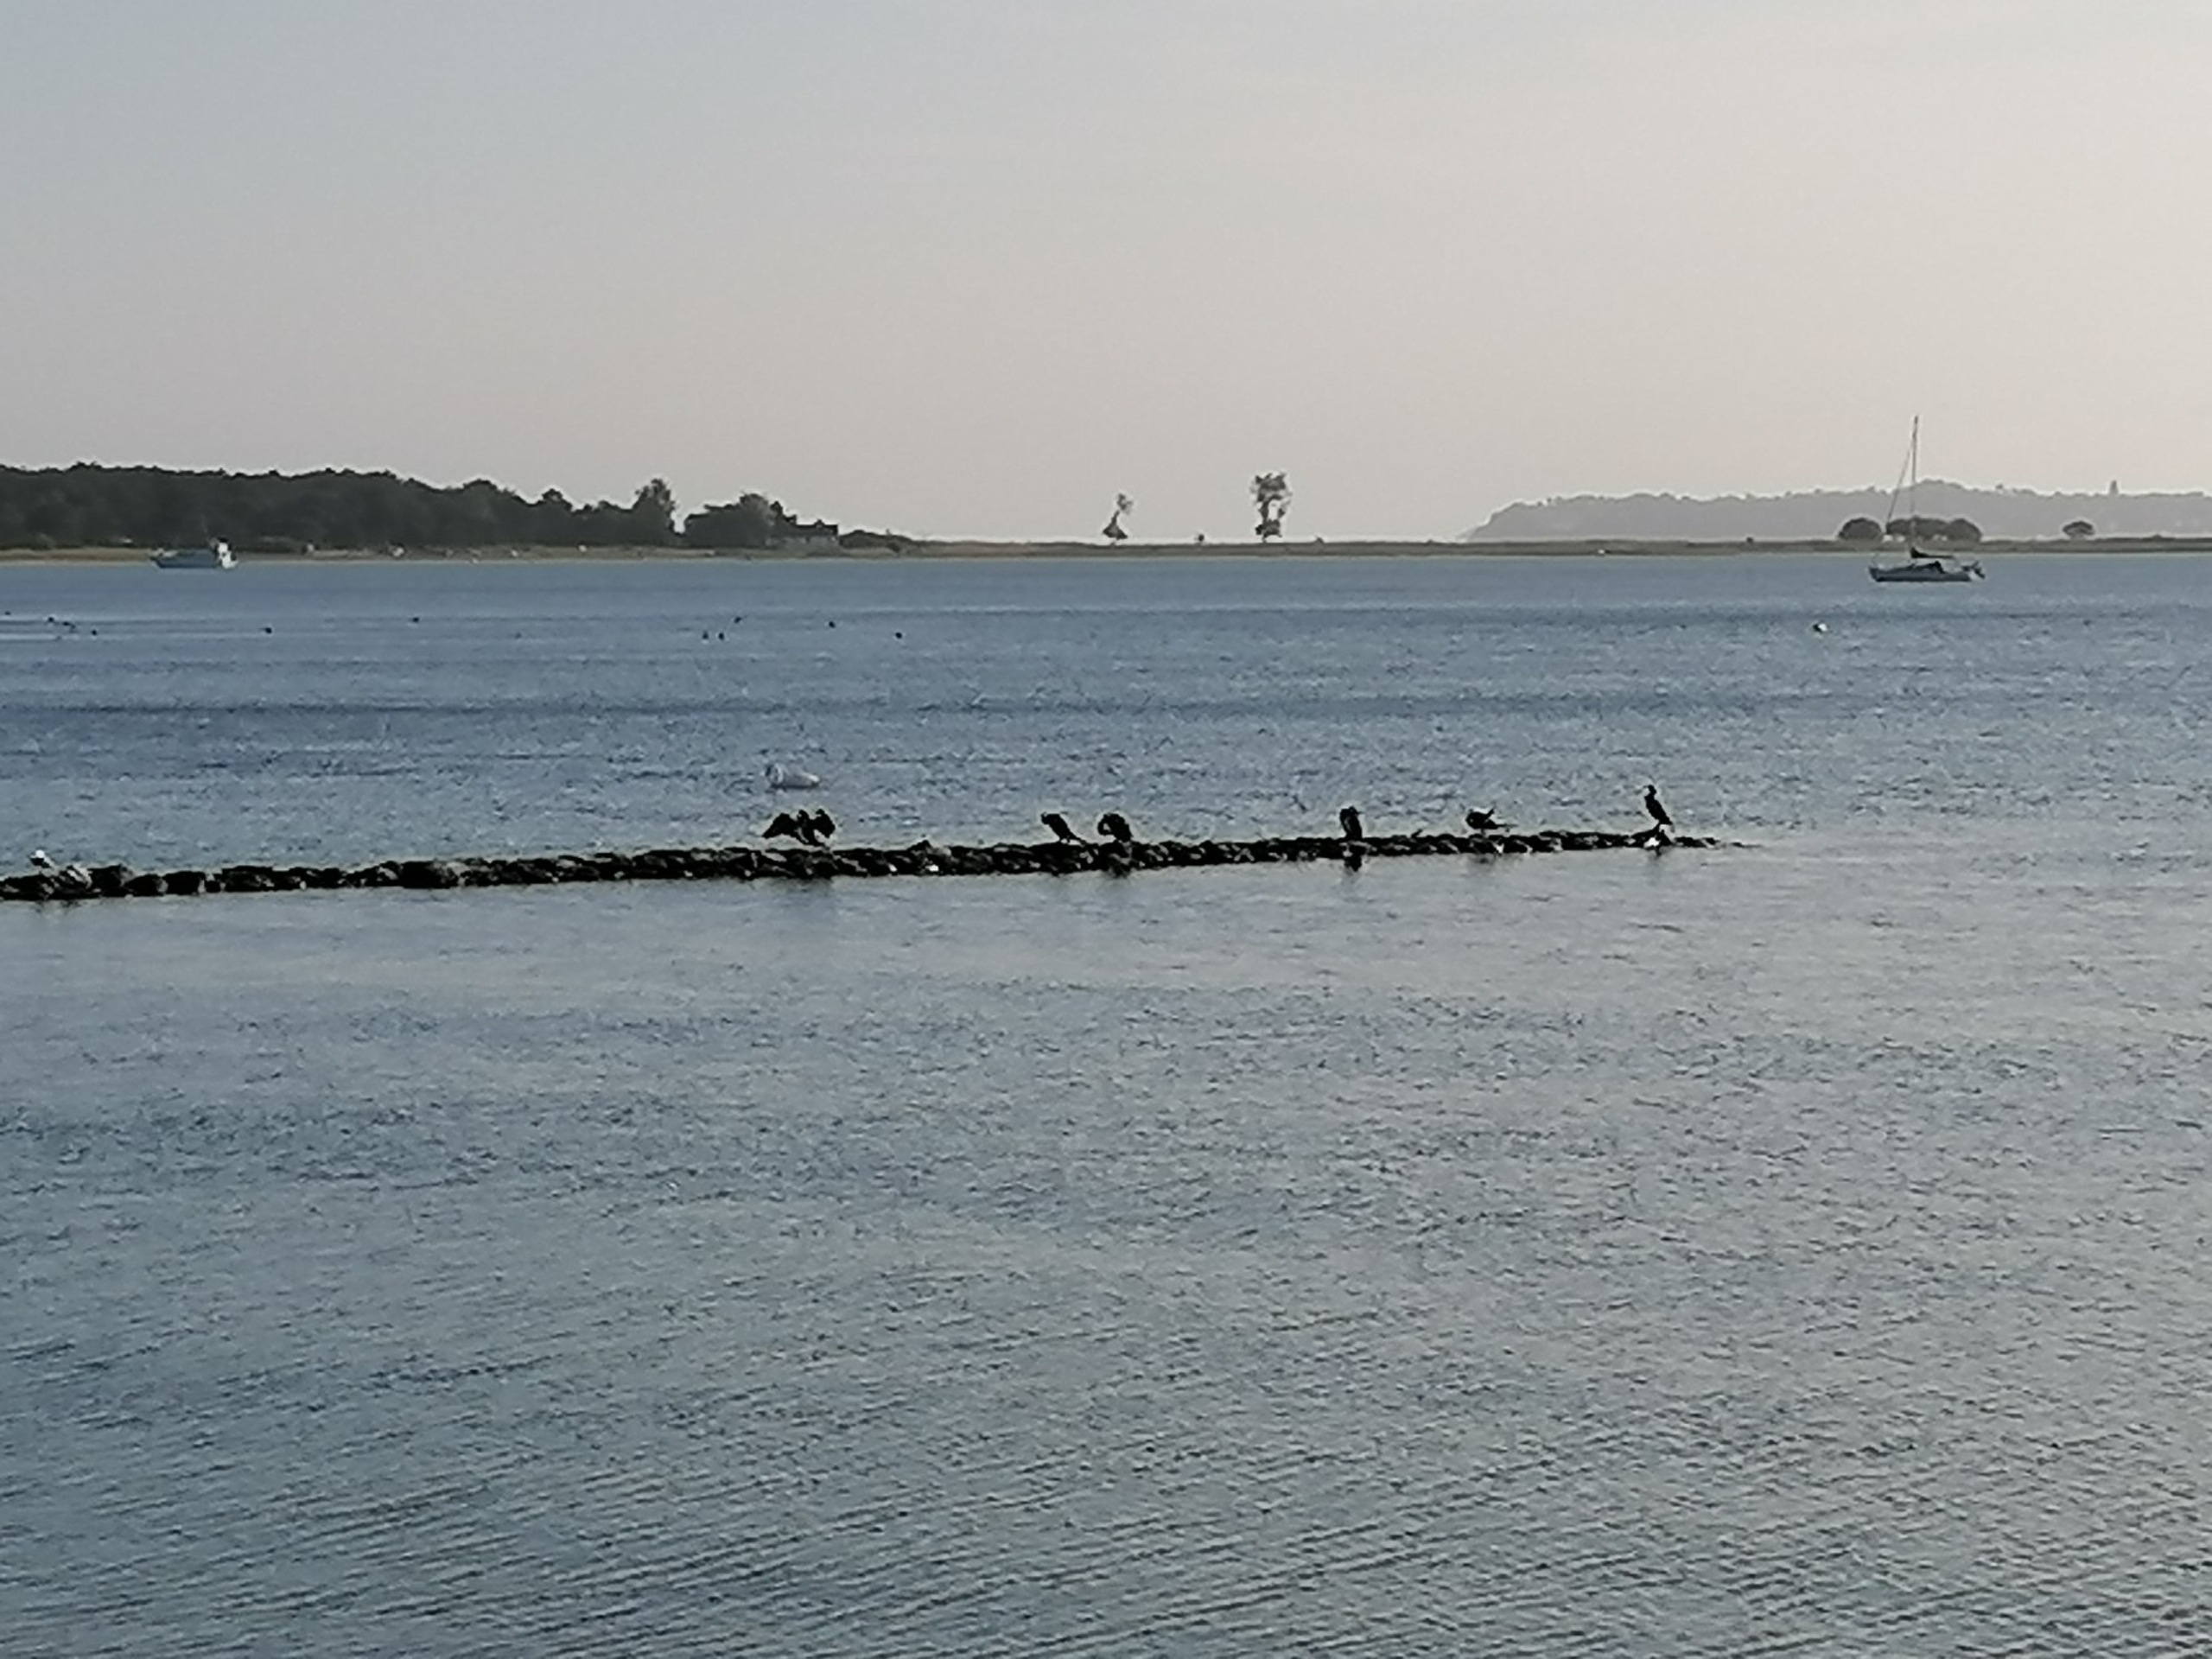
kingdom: Animalia
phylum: Chordata
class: Aves
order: Suliformes
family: Phalacrocoracidae
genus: Phalacrocorax
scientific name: Phalacrocorax carbo
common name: Skarv
